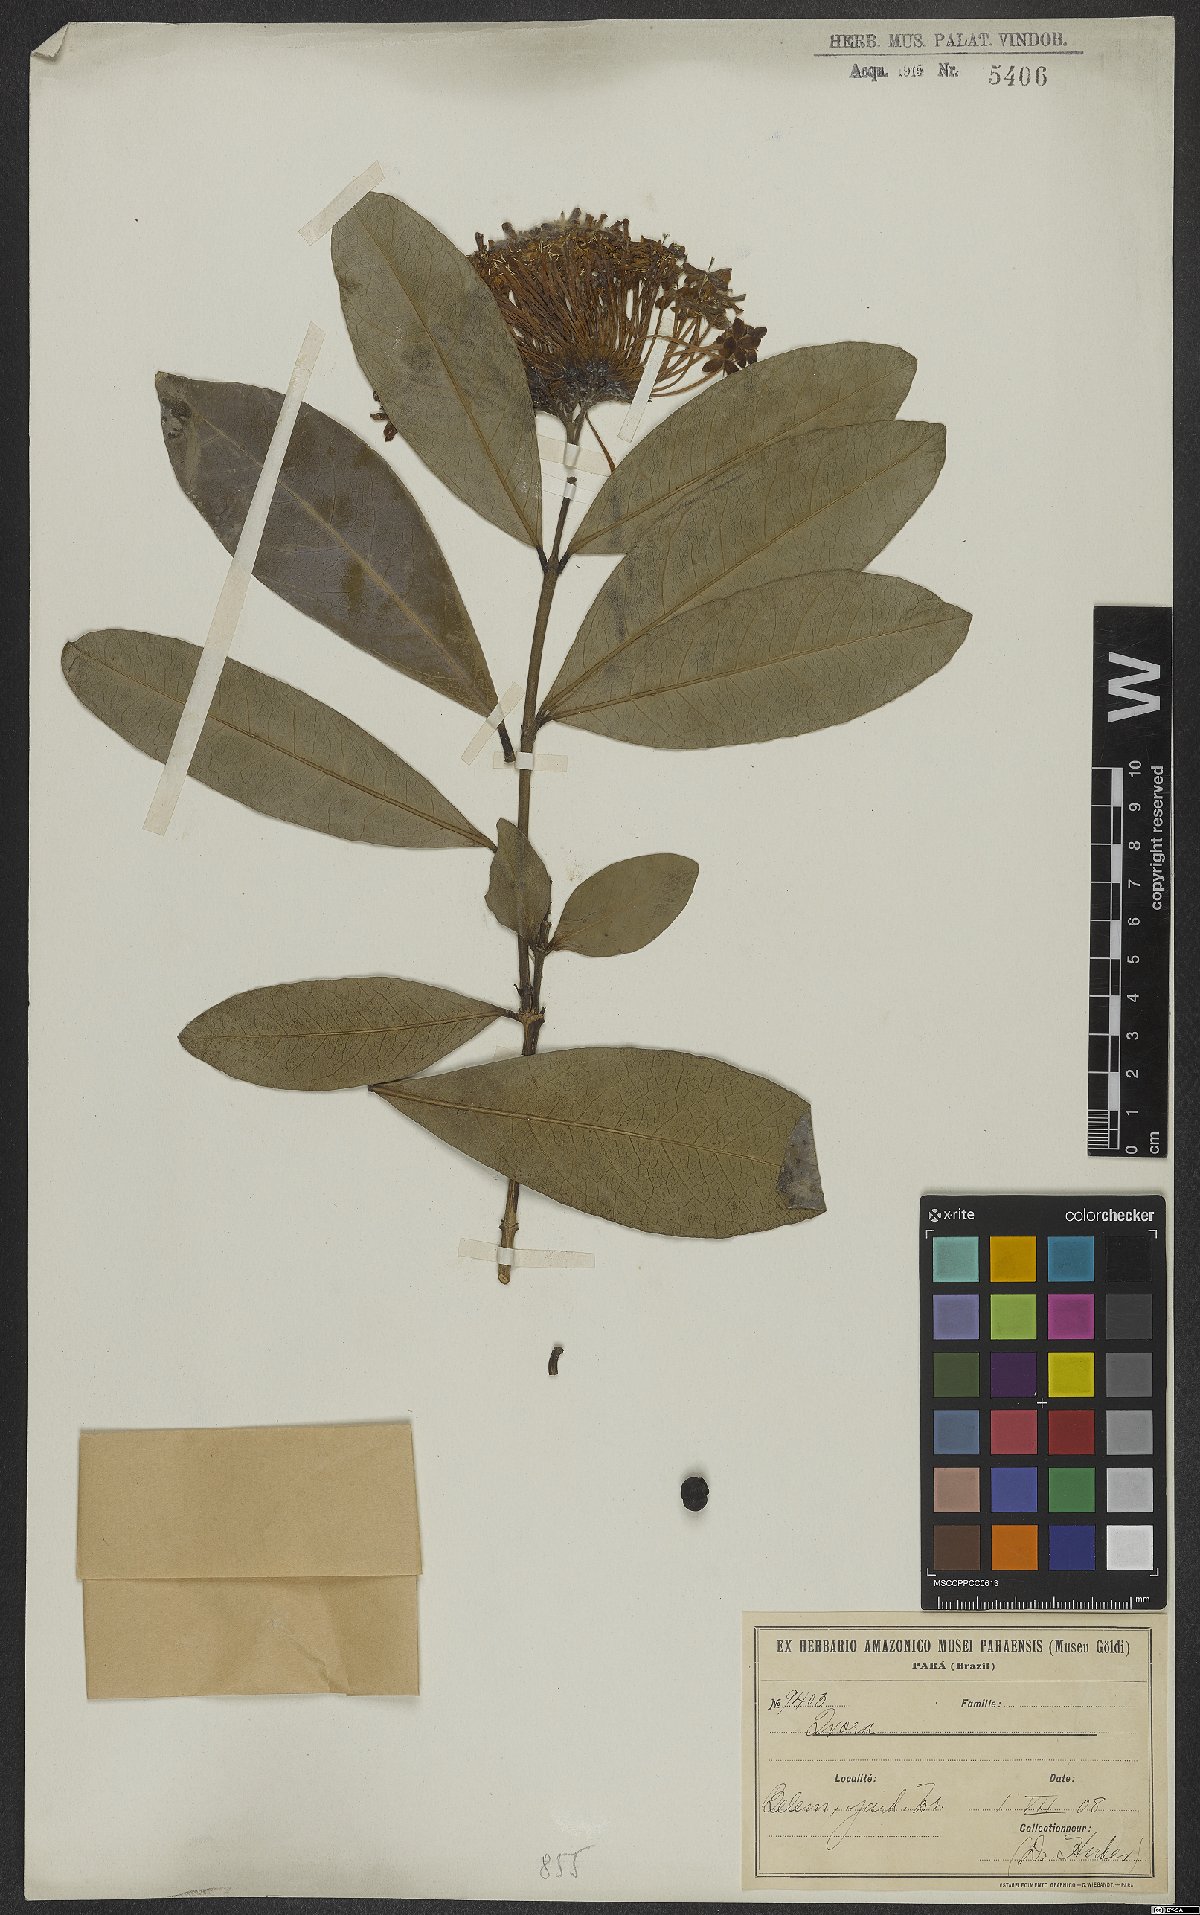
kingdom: Plantae
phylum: Tracheophyta
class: Magnoliopsida
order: Gentianales
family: Rubiaceae
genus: Ixora
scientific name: Ixora
